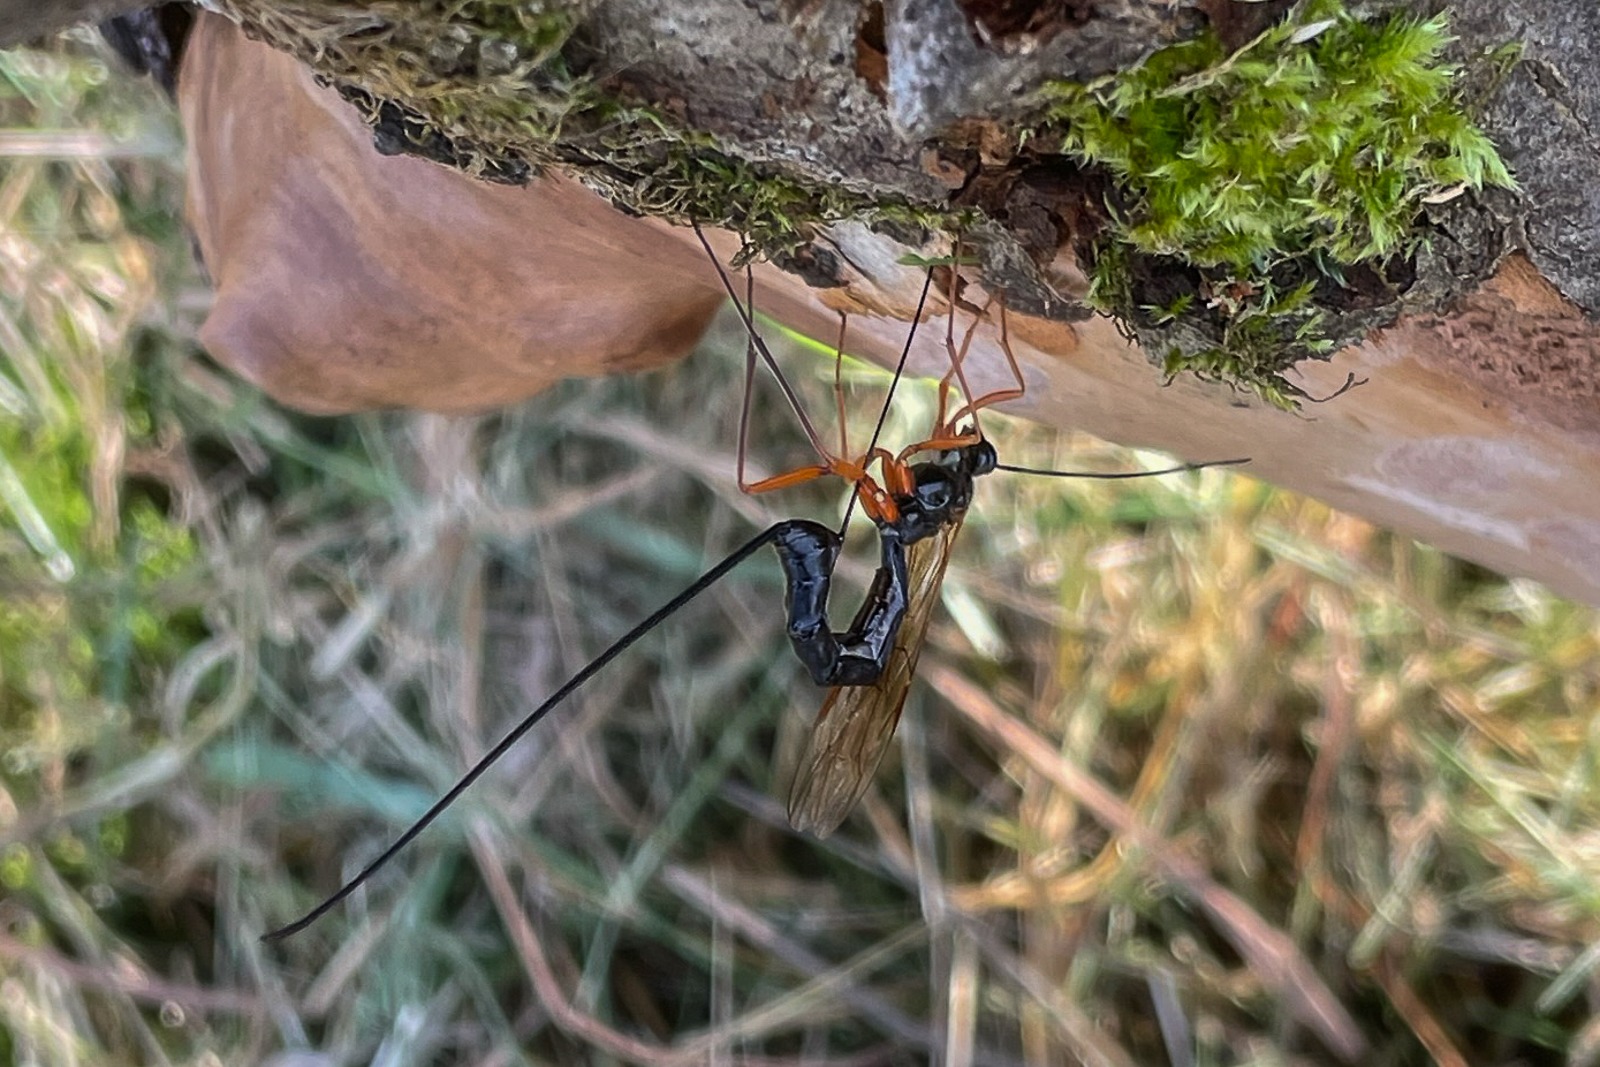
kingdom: Animalia
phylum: Arthropoda
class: Insecta
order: Hymenoptera
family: Ichneumonidae
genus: Dolichomitus
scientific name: Dolichomitus
